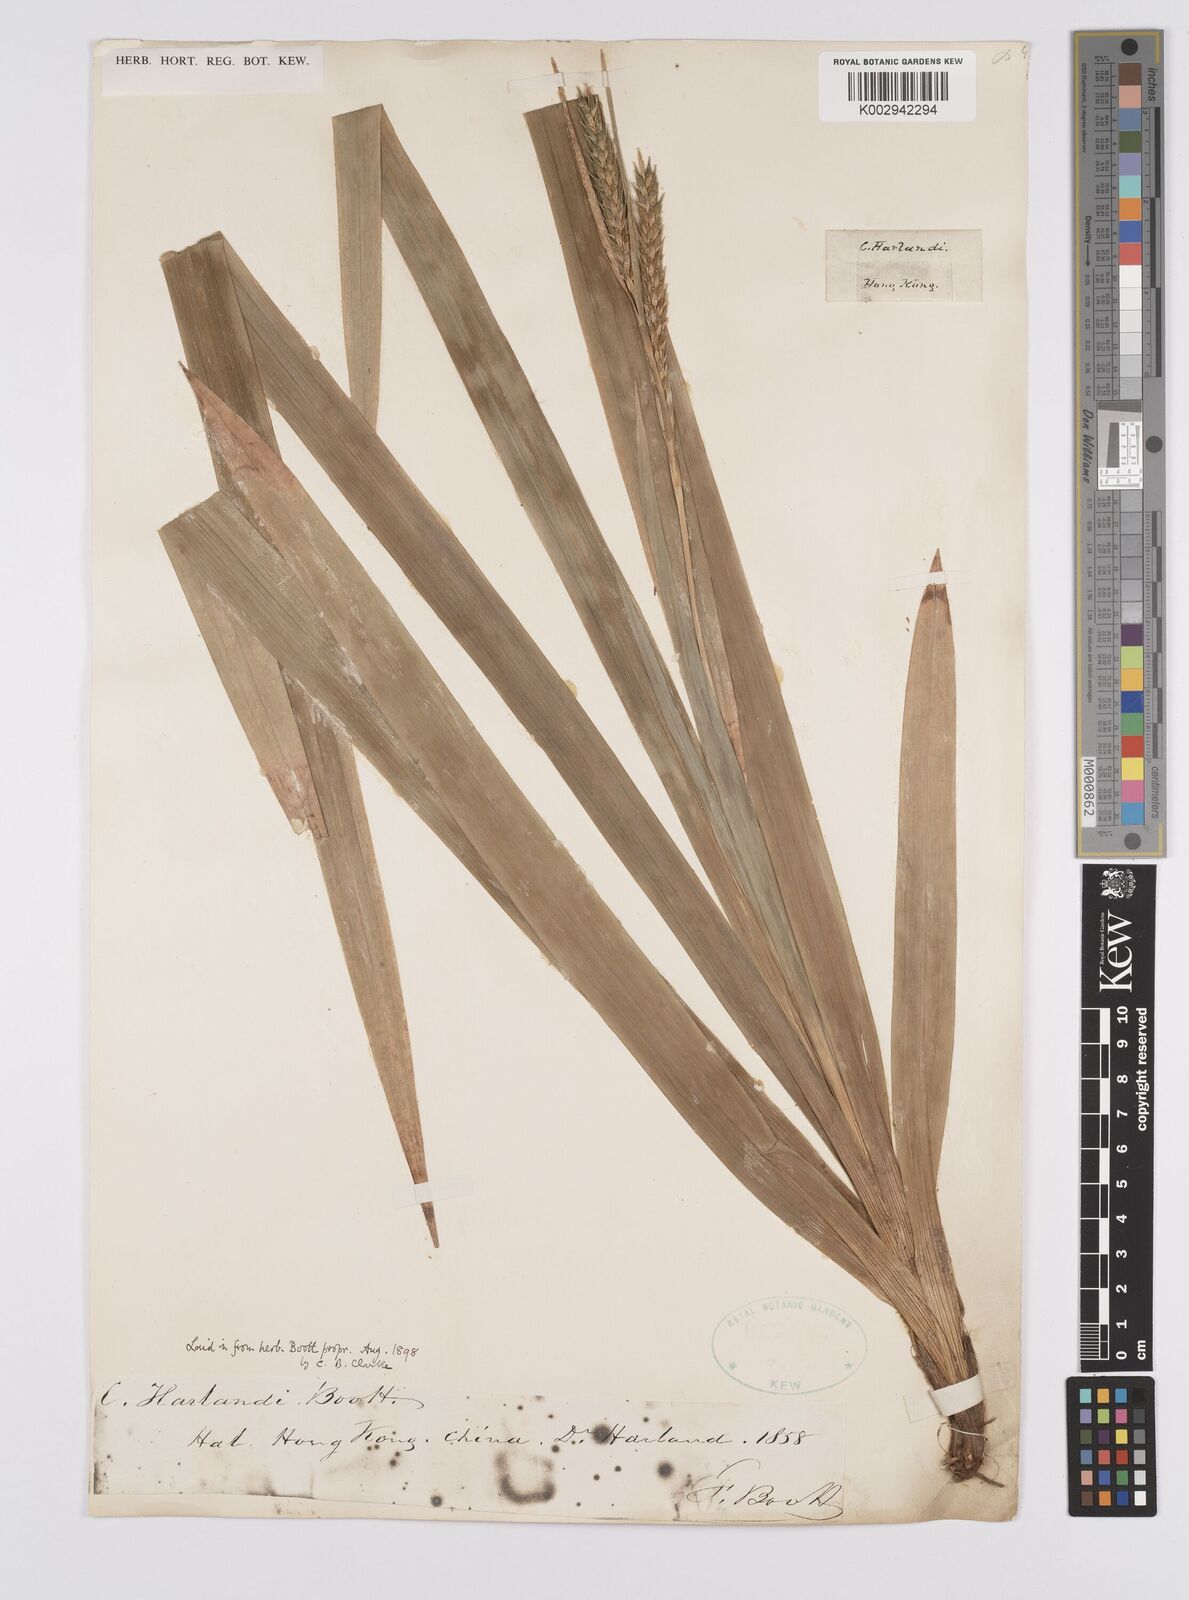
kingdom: Plantae
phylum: Tracheophyta
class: Liliopsida
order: Poales
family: Cyperaceae
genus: Carex
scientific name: Carex harlandii
